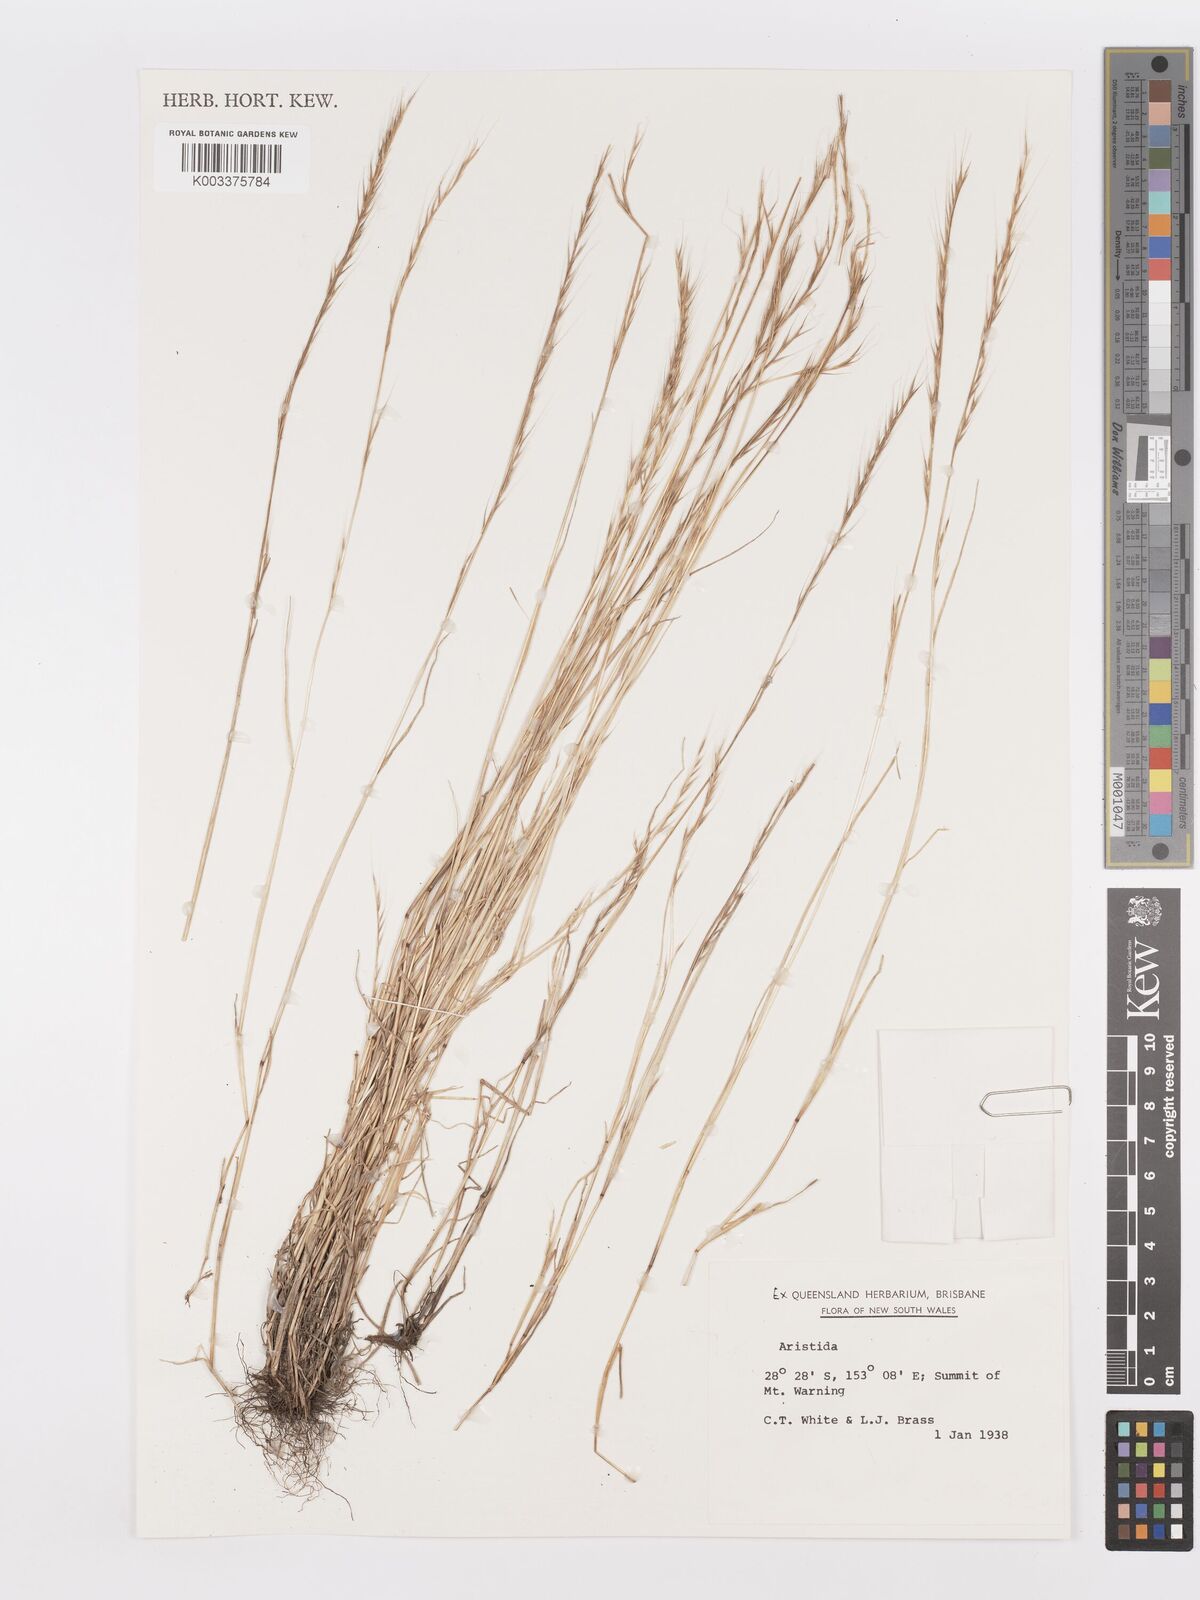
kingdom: Plantae
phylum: Tracheophyta
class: Liliopsida
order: Poales
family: Poaceae
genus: Aristida
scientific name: Aristida
